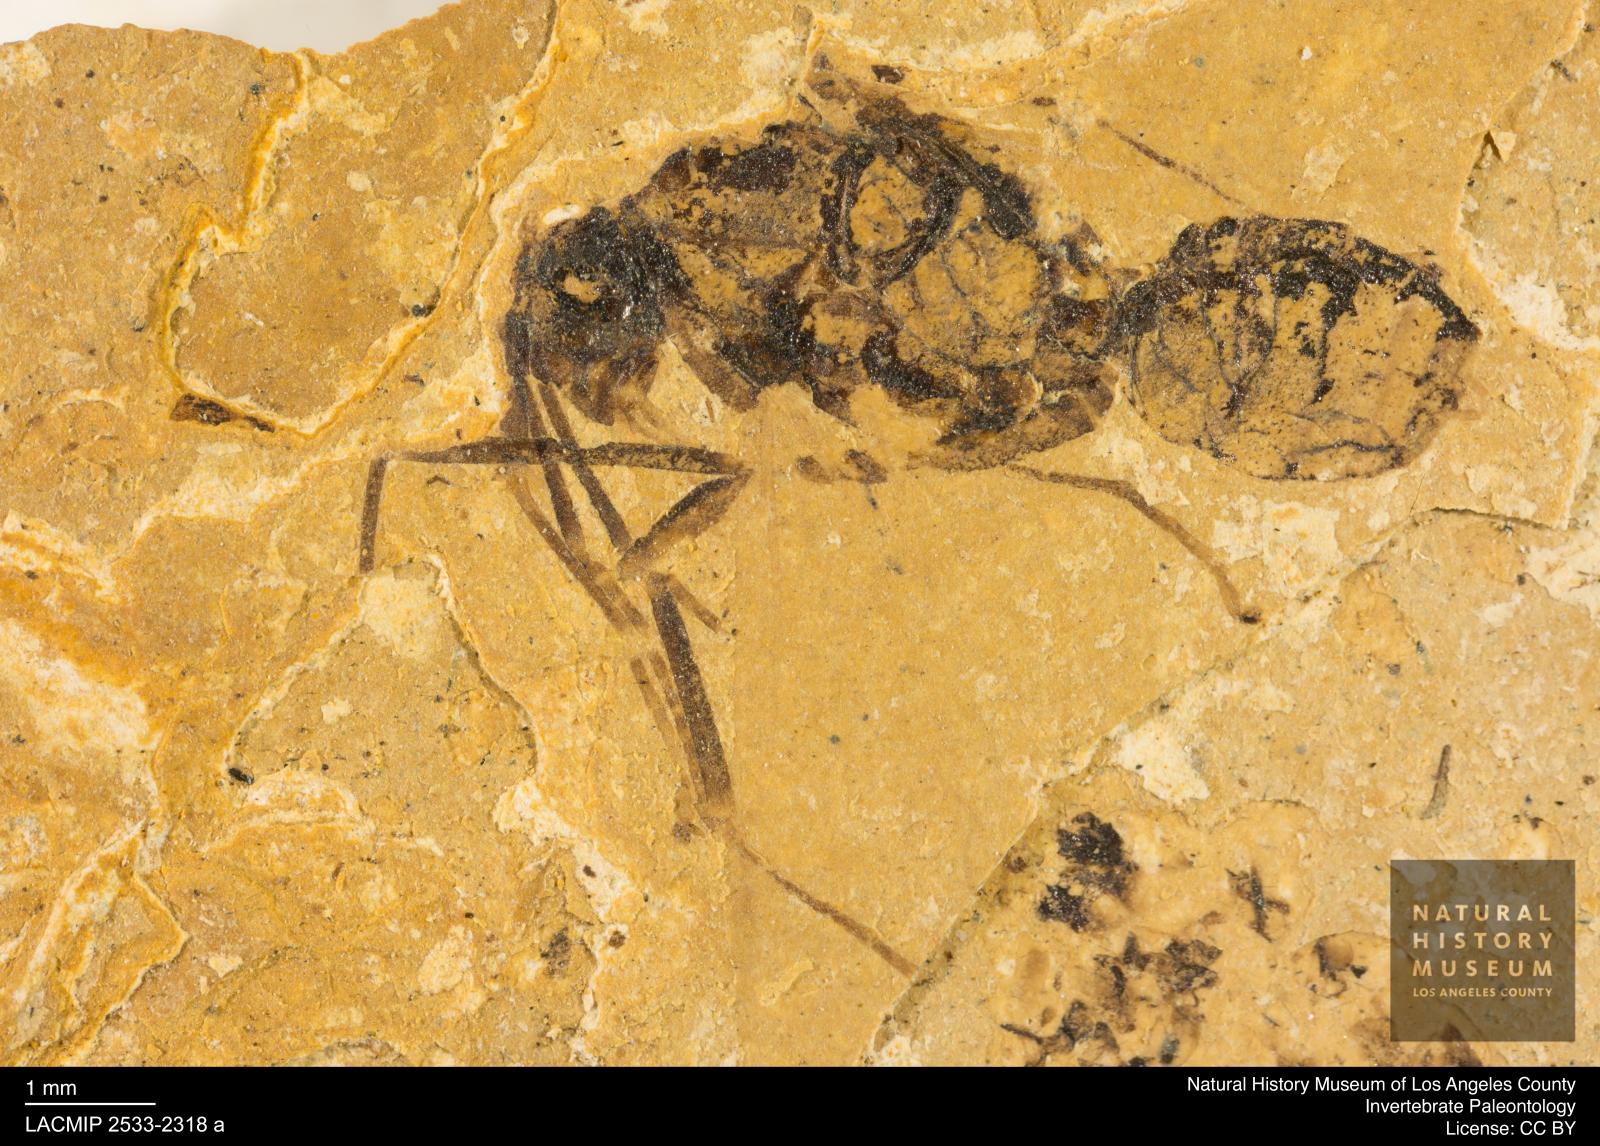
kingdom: Animalia
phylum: Arthropoda
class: Insecta
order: Hymenoptera
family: Formicidae
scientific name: Formicidae
